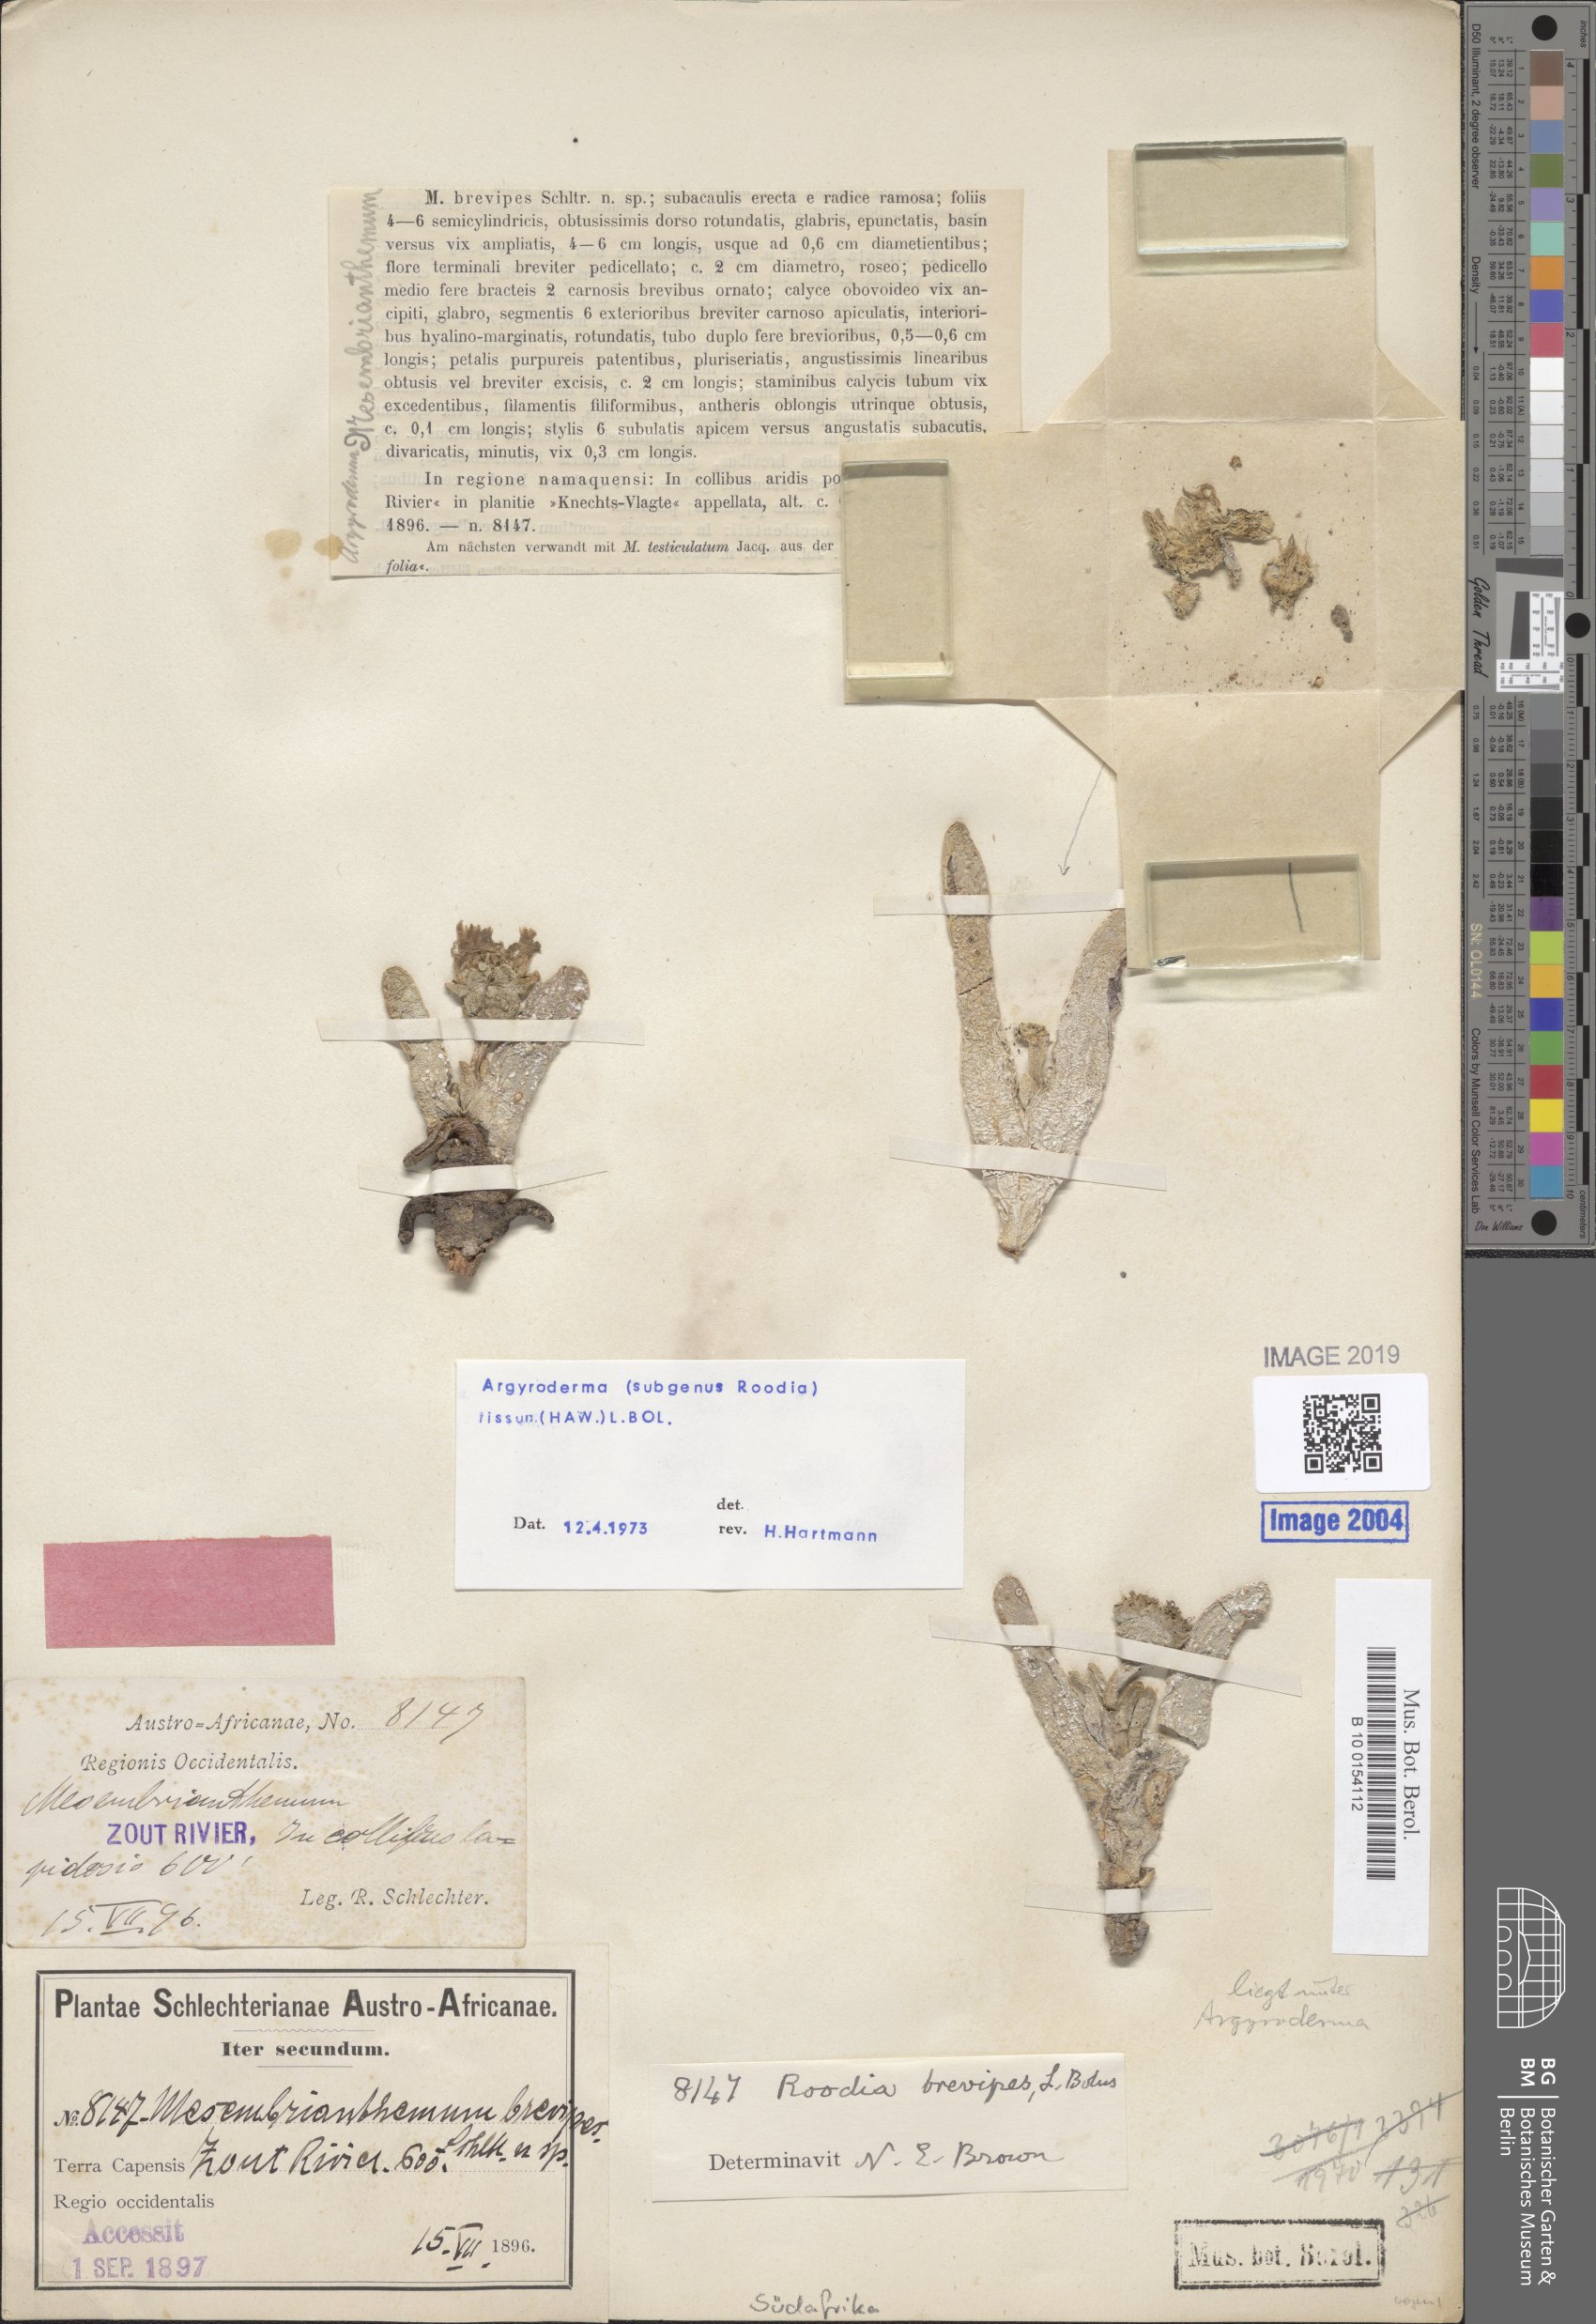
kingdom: Plantae
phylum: Tracheophyta
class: Magnoliopsida
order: Caryophyllales
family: Aizoaceae
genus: Argyroderma
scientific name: Argyroderma fissum
